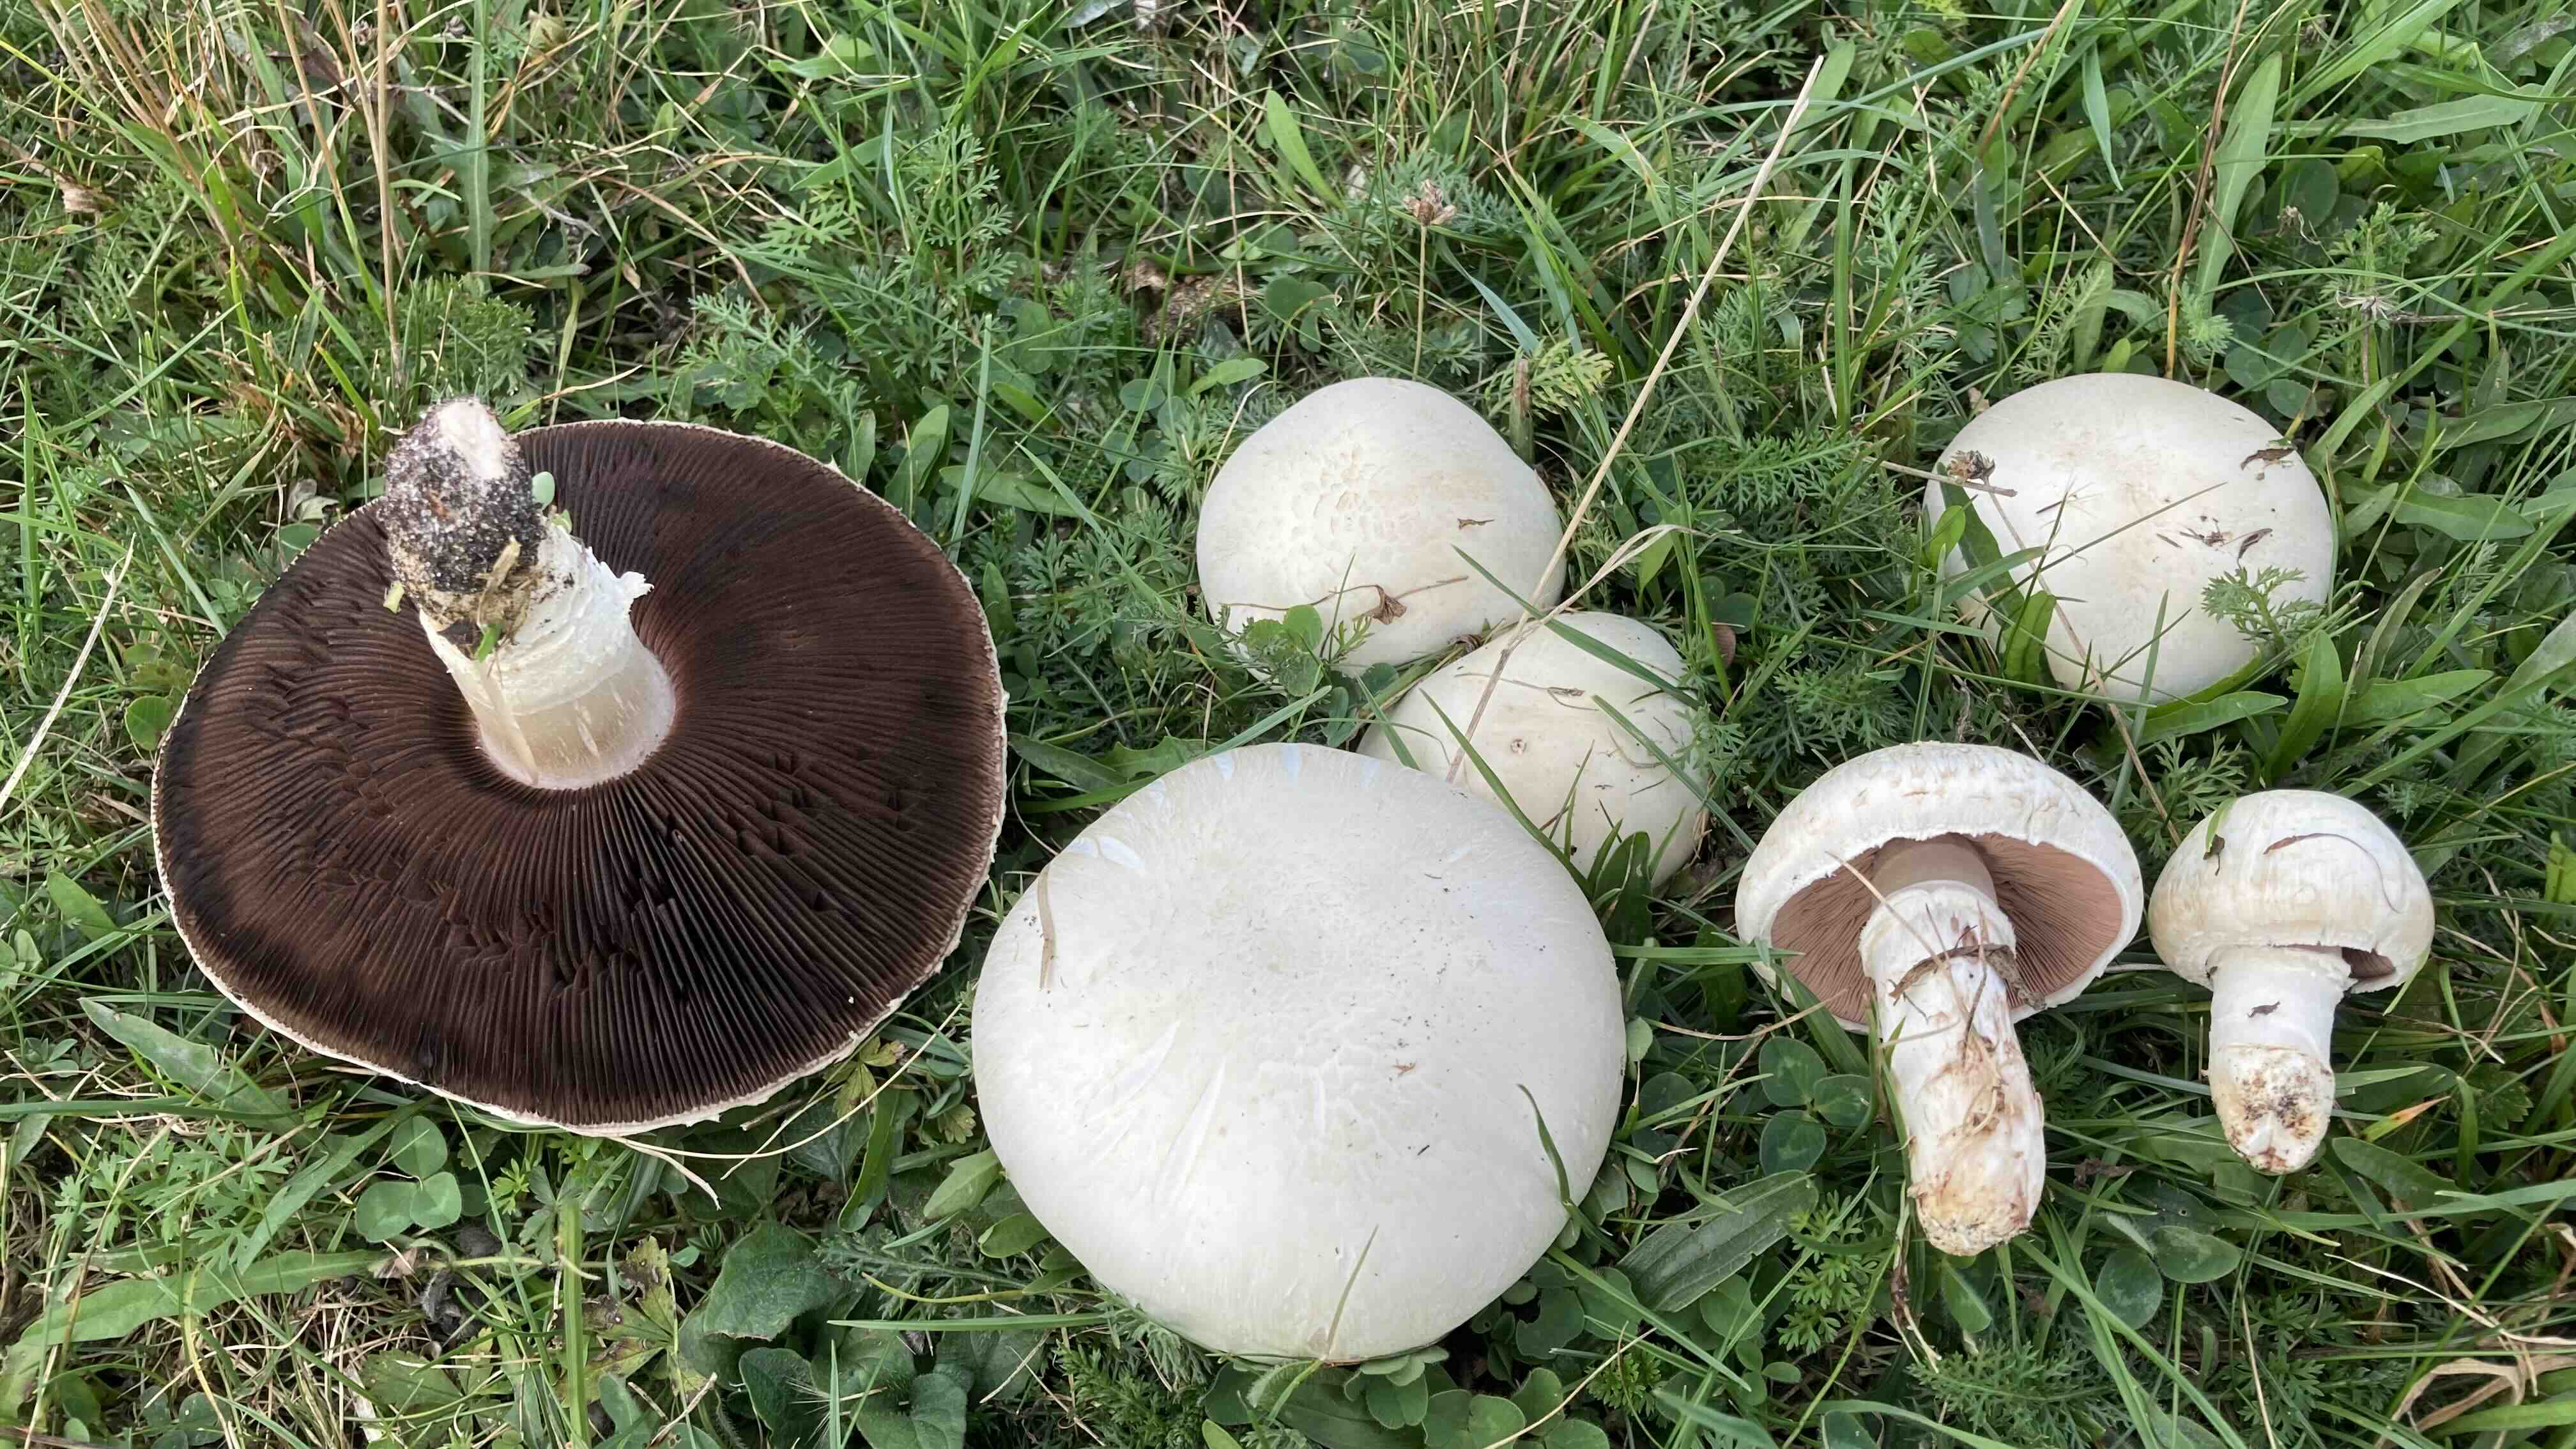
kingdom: Fungi
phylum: Basidiomycota
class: Agaricomycetes
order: Agaricales
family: Agaricaceae
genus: Agaricus
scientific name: Agaricus campestris
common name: mark-champignon
